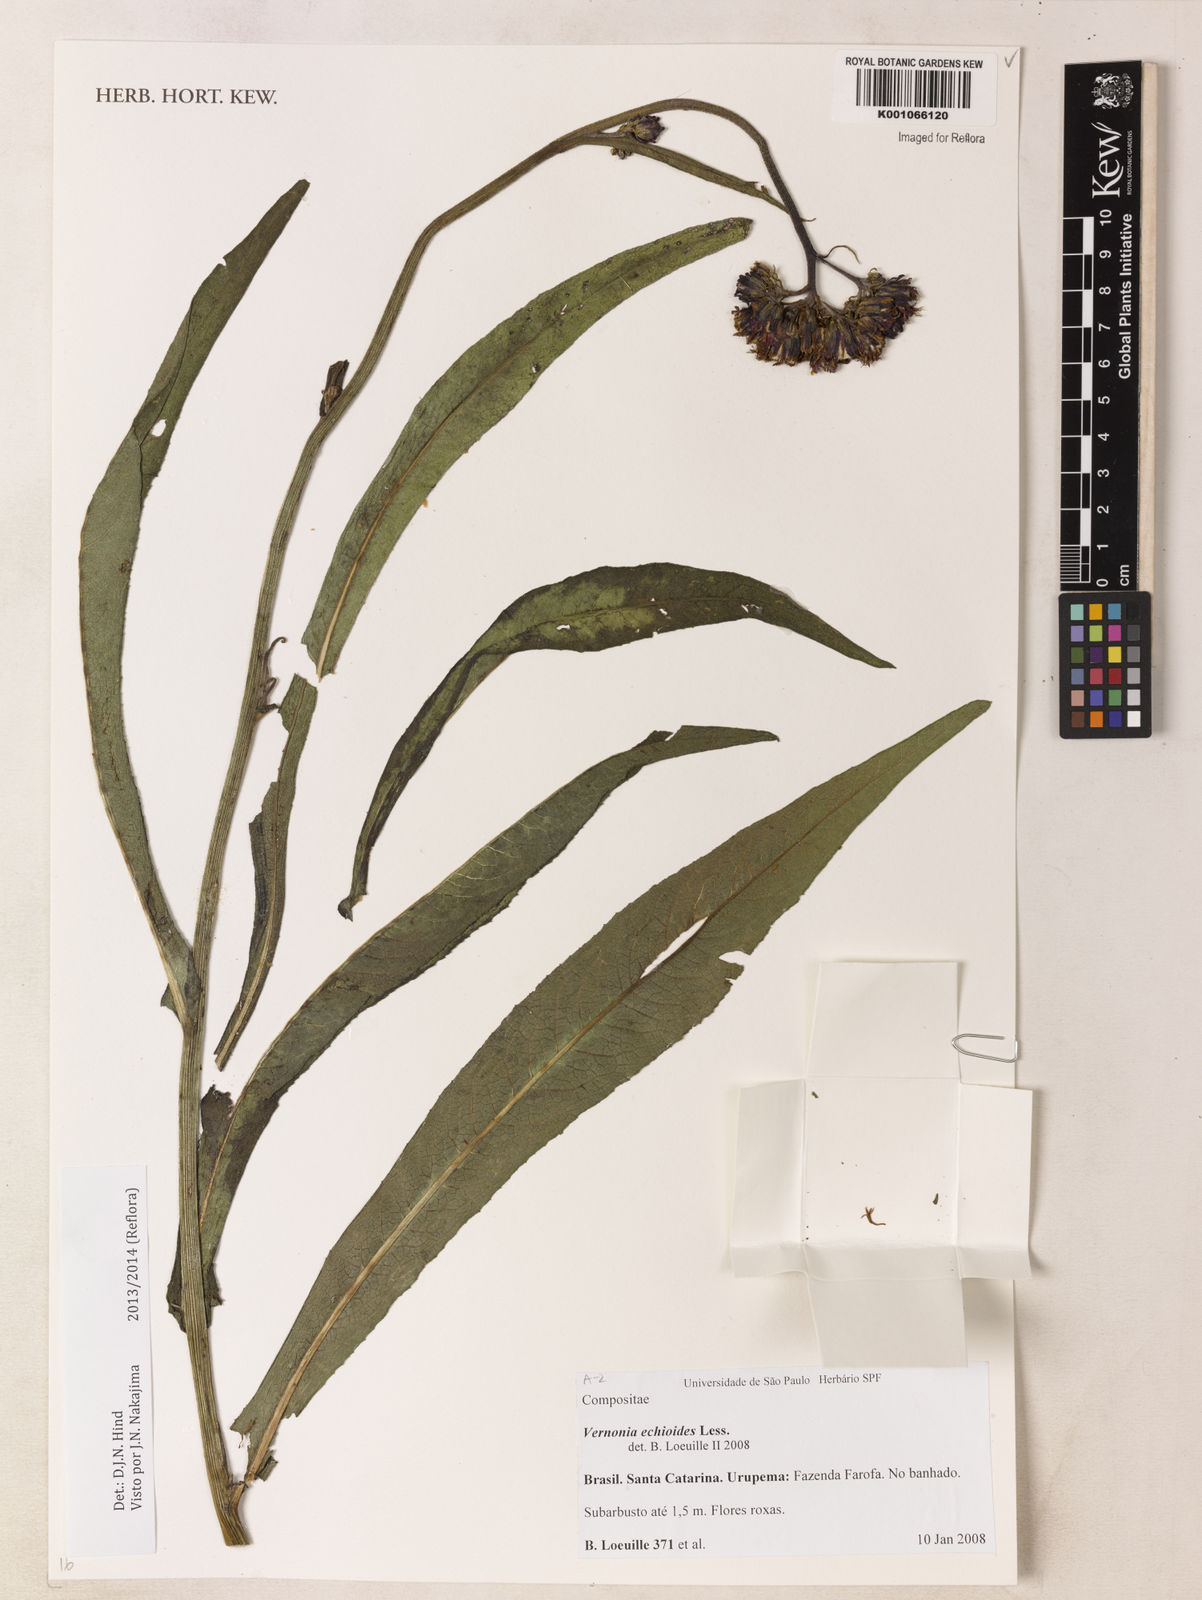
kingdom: Plantae
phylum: Tracheophyta
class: Magnoliopsida
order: Asterales
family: Asteraceae
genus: Vernonia
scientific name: Vernonia echioides
